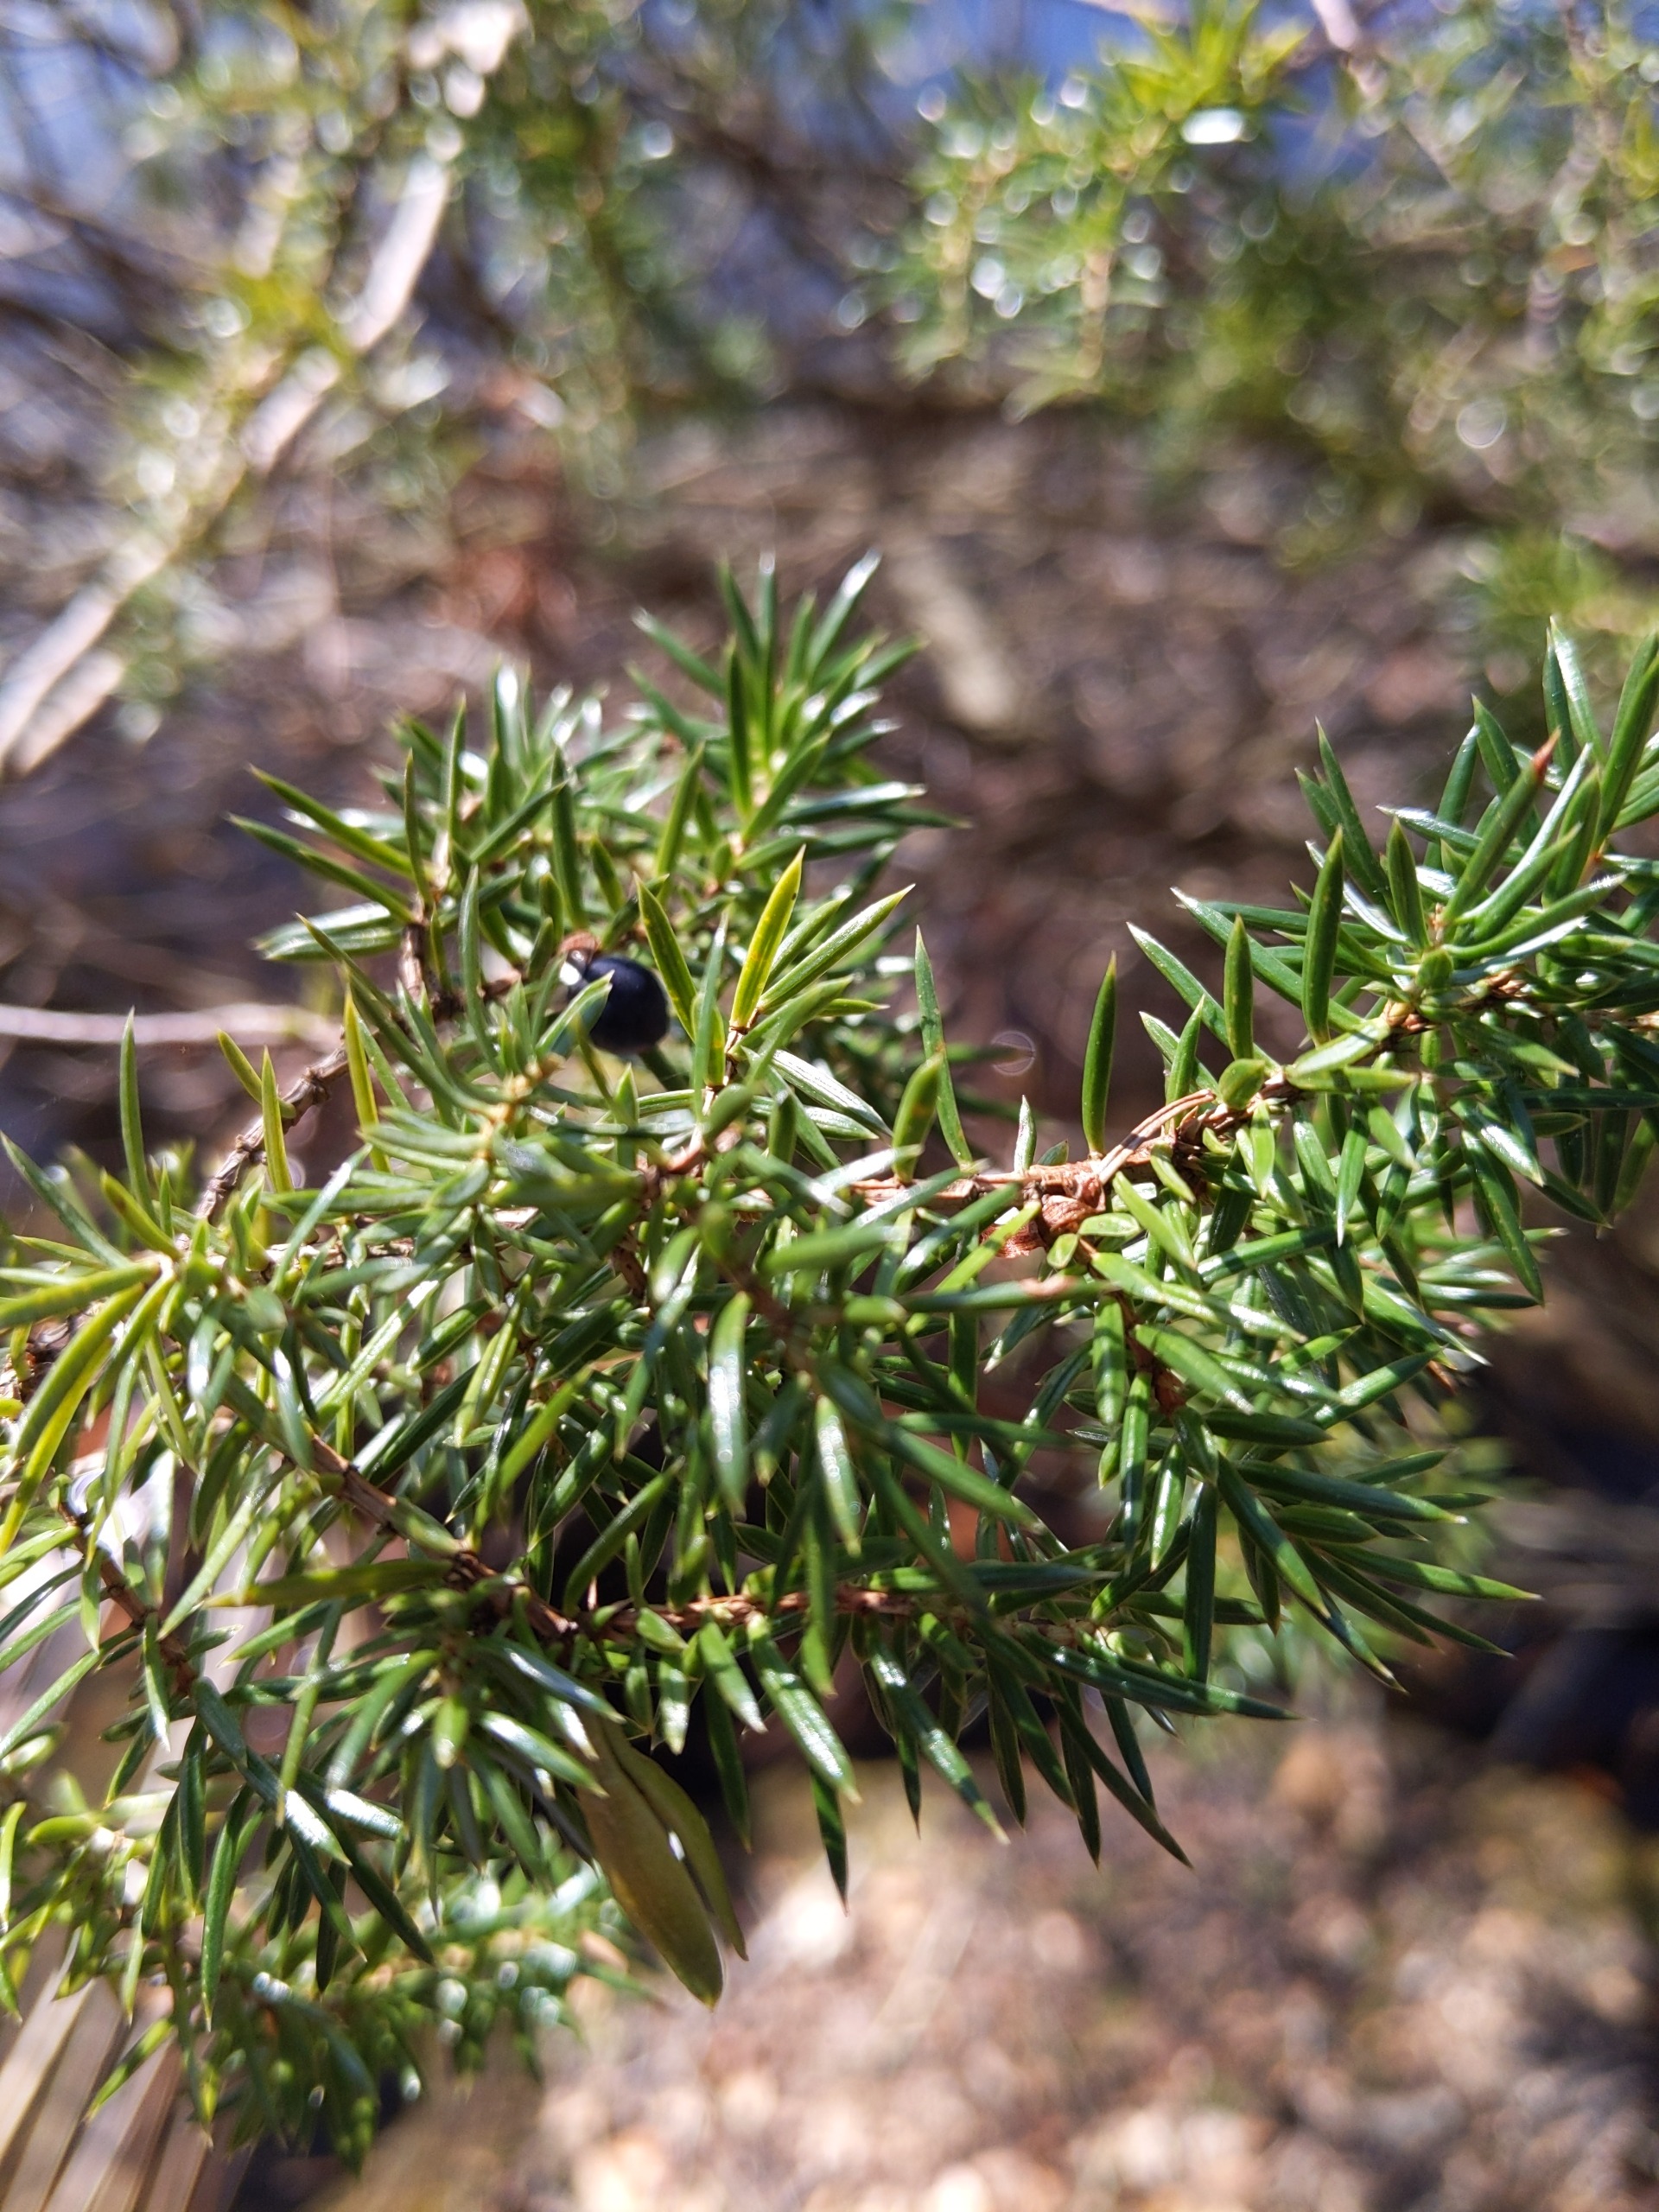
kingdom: Plantae
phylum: Tracheophyta
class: Pinopsida
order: Pinales
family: Cupressaceae
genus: Juniperus
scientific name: Juniperus communis
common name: Almindelig ene
